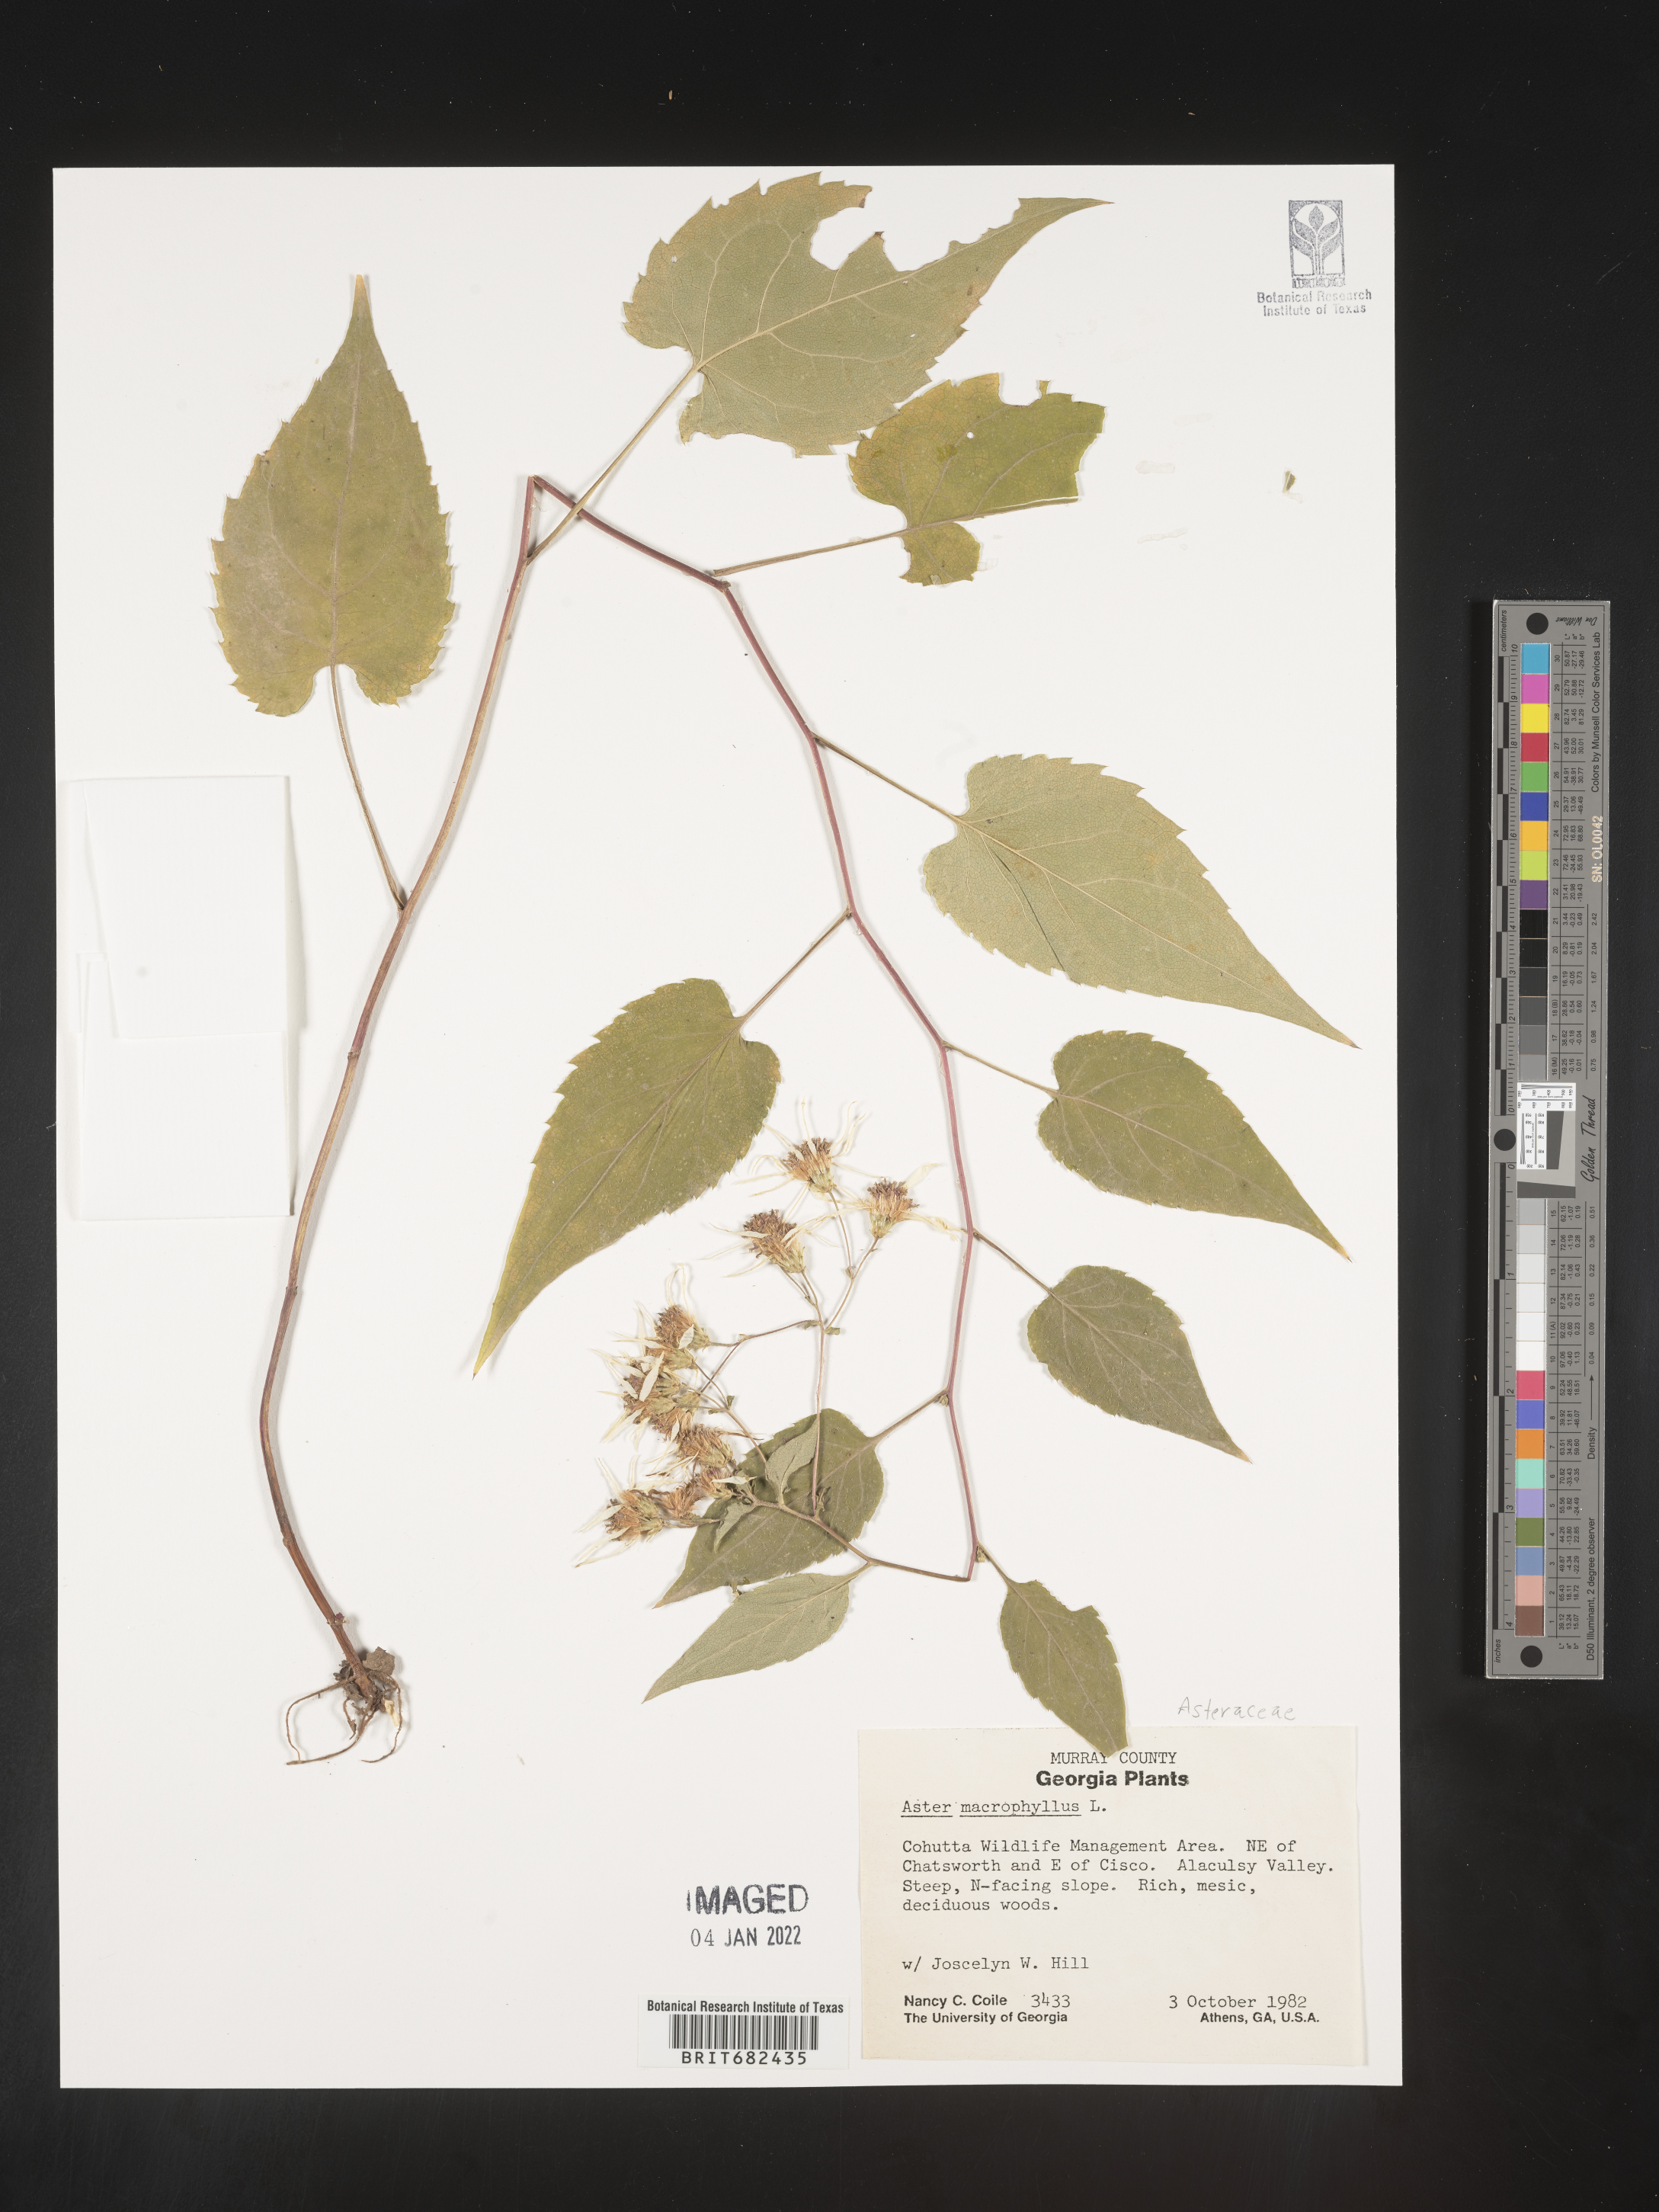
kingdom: Plantae
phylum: Tracheophyta
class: Magnoliopsida
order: Asterales
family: Asteraceae
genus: Aster
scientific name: Aster
